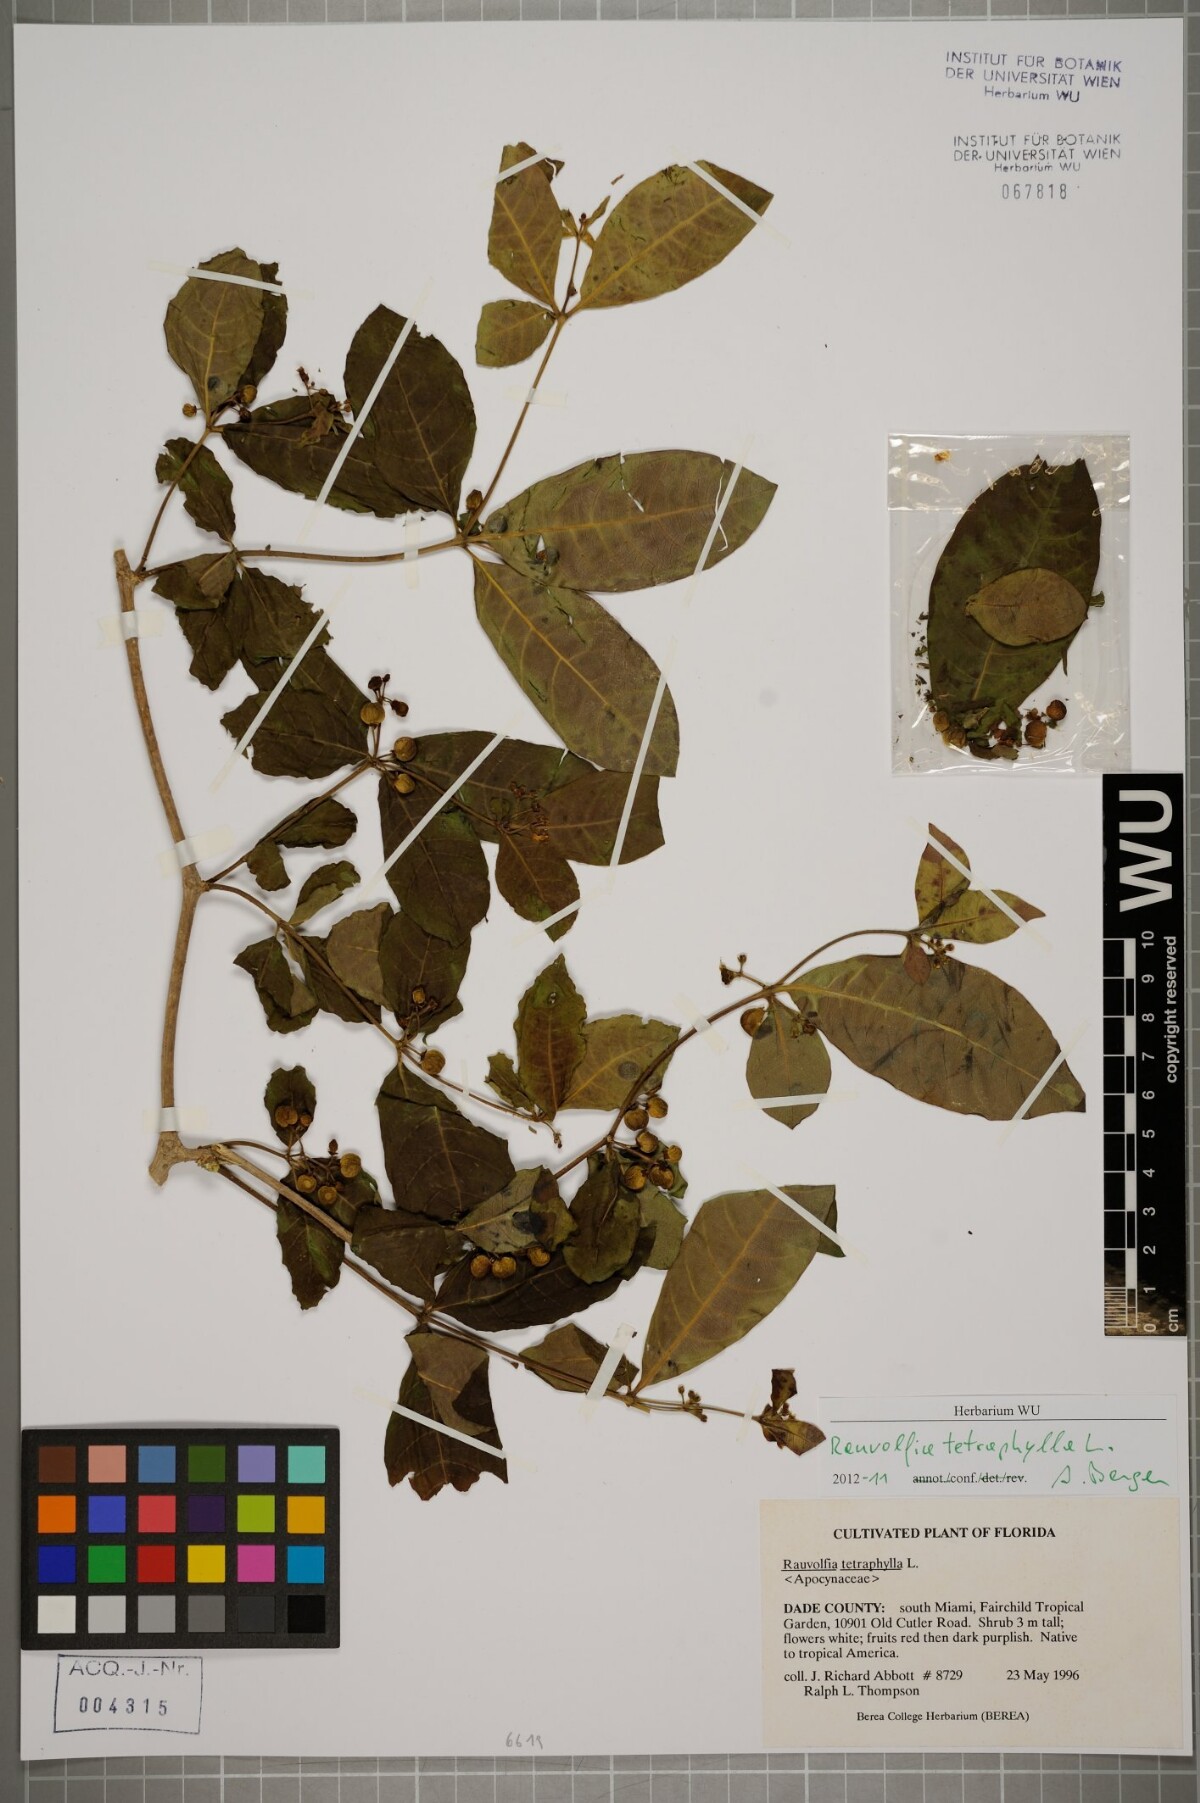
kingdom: Plantae
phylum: Tracheophyta
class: Magnoliopsida
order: Gentianales
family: Apocynaceae
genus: Rauvolfia
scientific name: Rauvolfia tetraphylla
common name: Four-leaf devil-pepper
